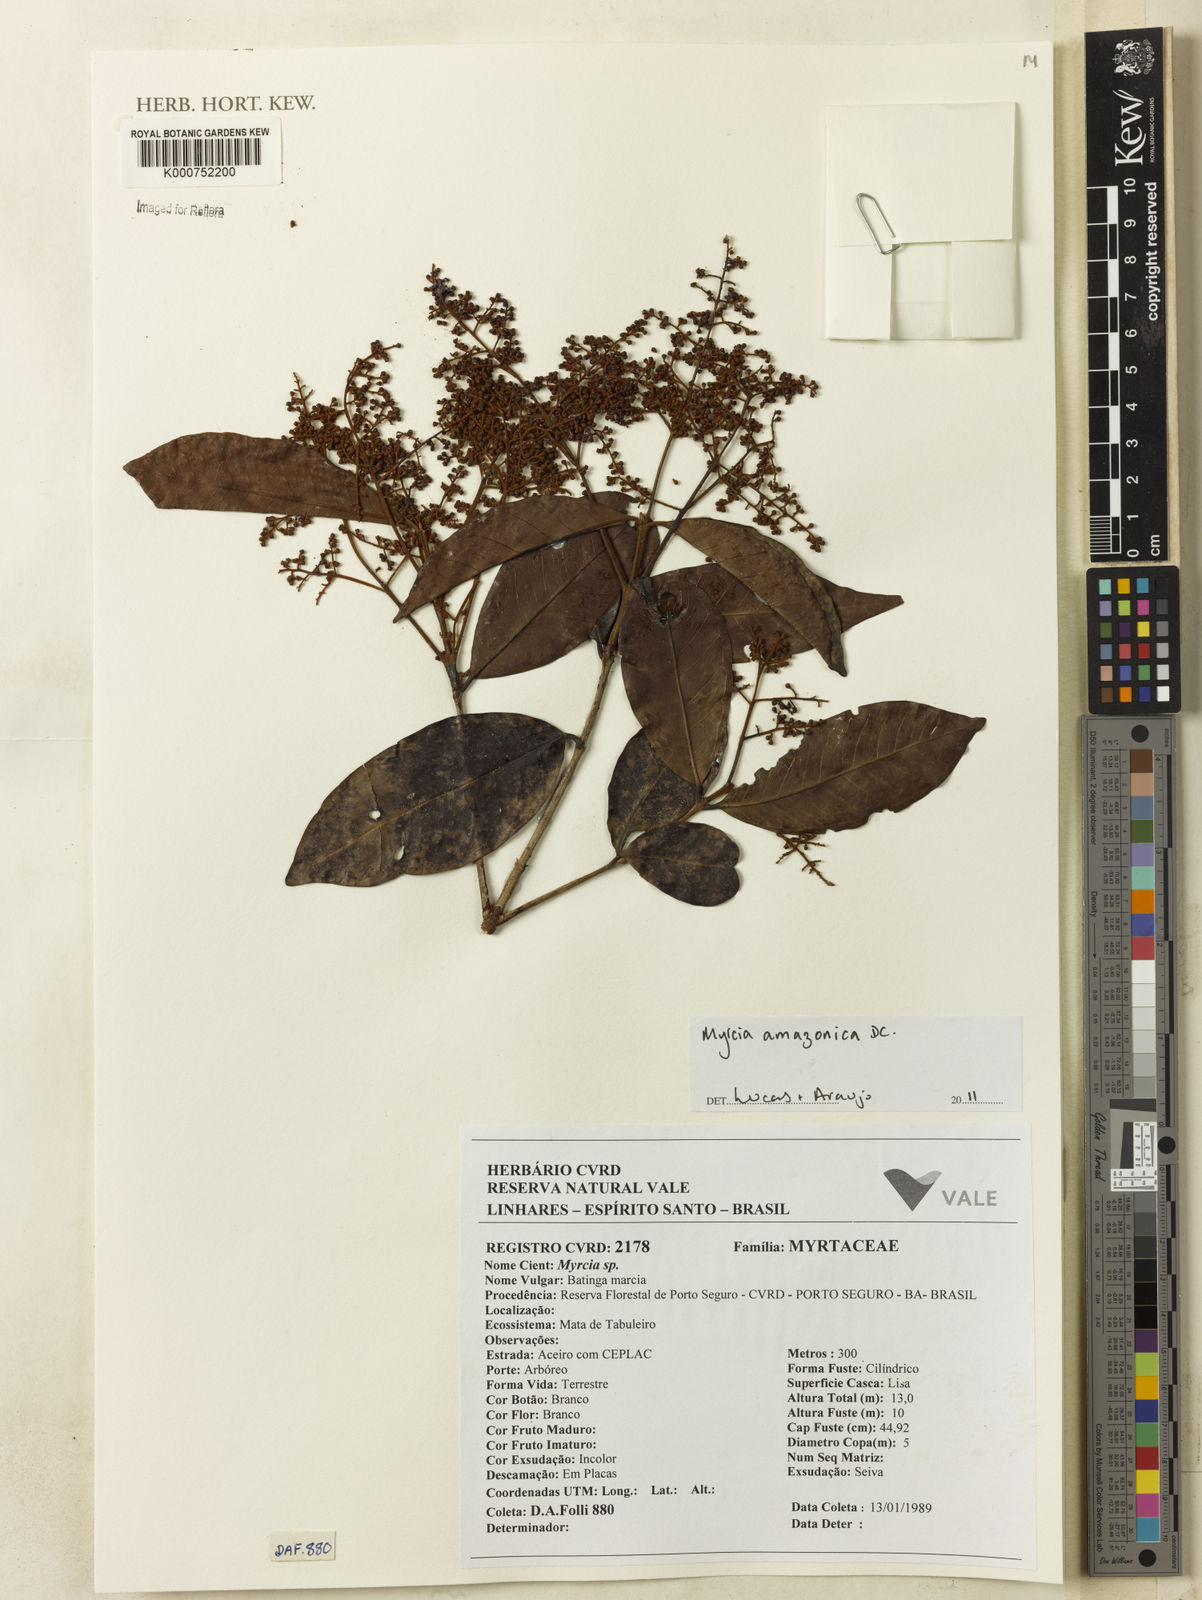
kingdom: Plantae
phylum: Tracheophyta
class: Magnoliopsida
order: Myrtales
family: Myrtaceae
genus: Myrcia
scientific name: Myrcia amazonica
